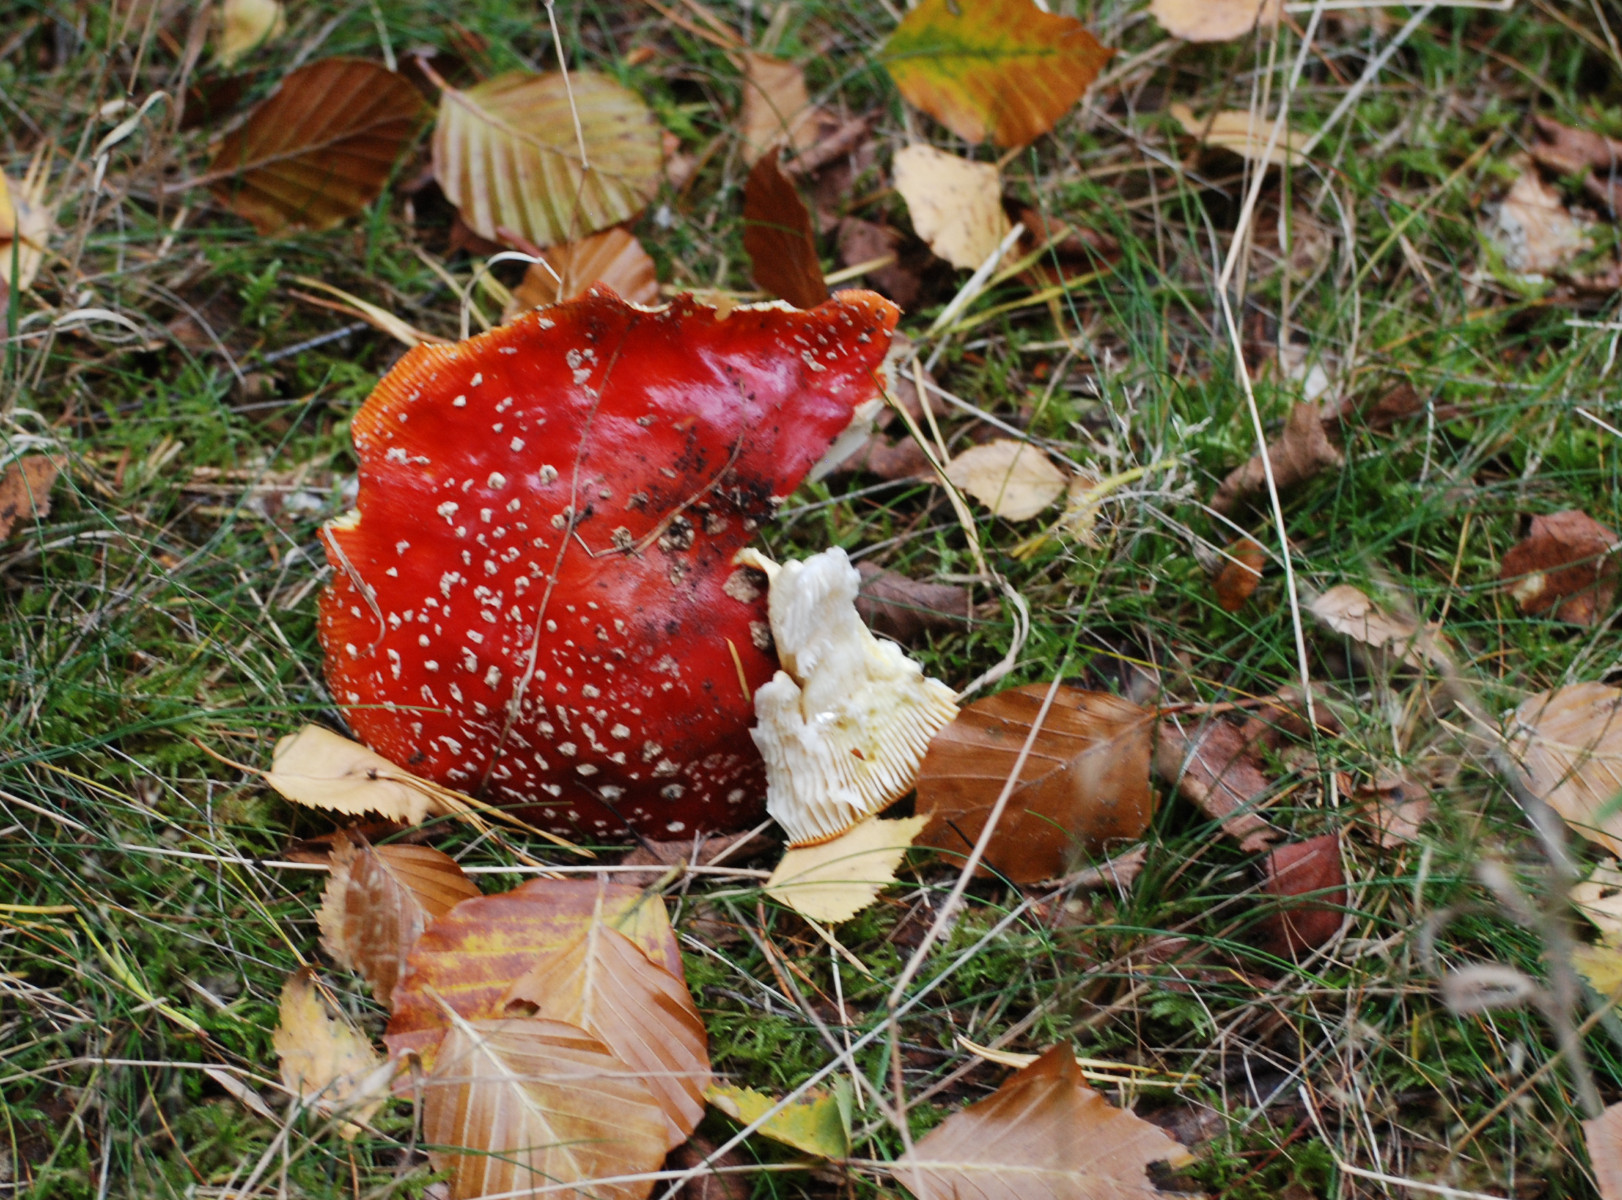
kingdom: Fungi
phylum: Basidiomycota
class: Agaricomycetes
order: Agaricales
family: Amanitaceae
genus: Amanita
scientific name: Amanita muscaria
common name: rød fluesvamp
